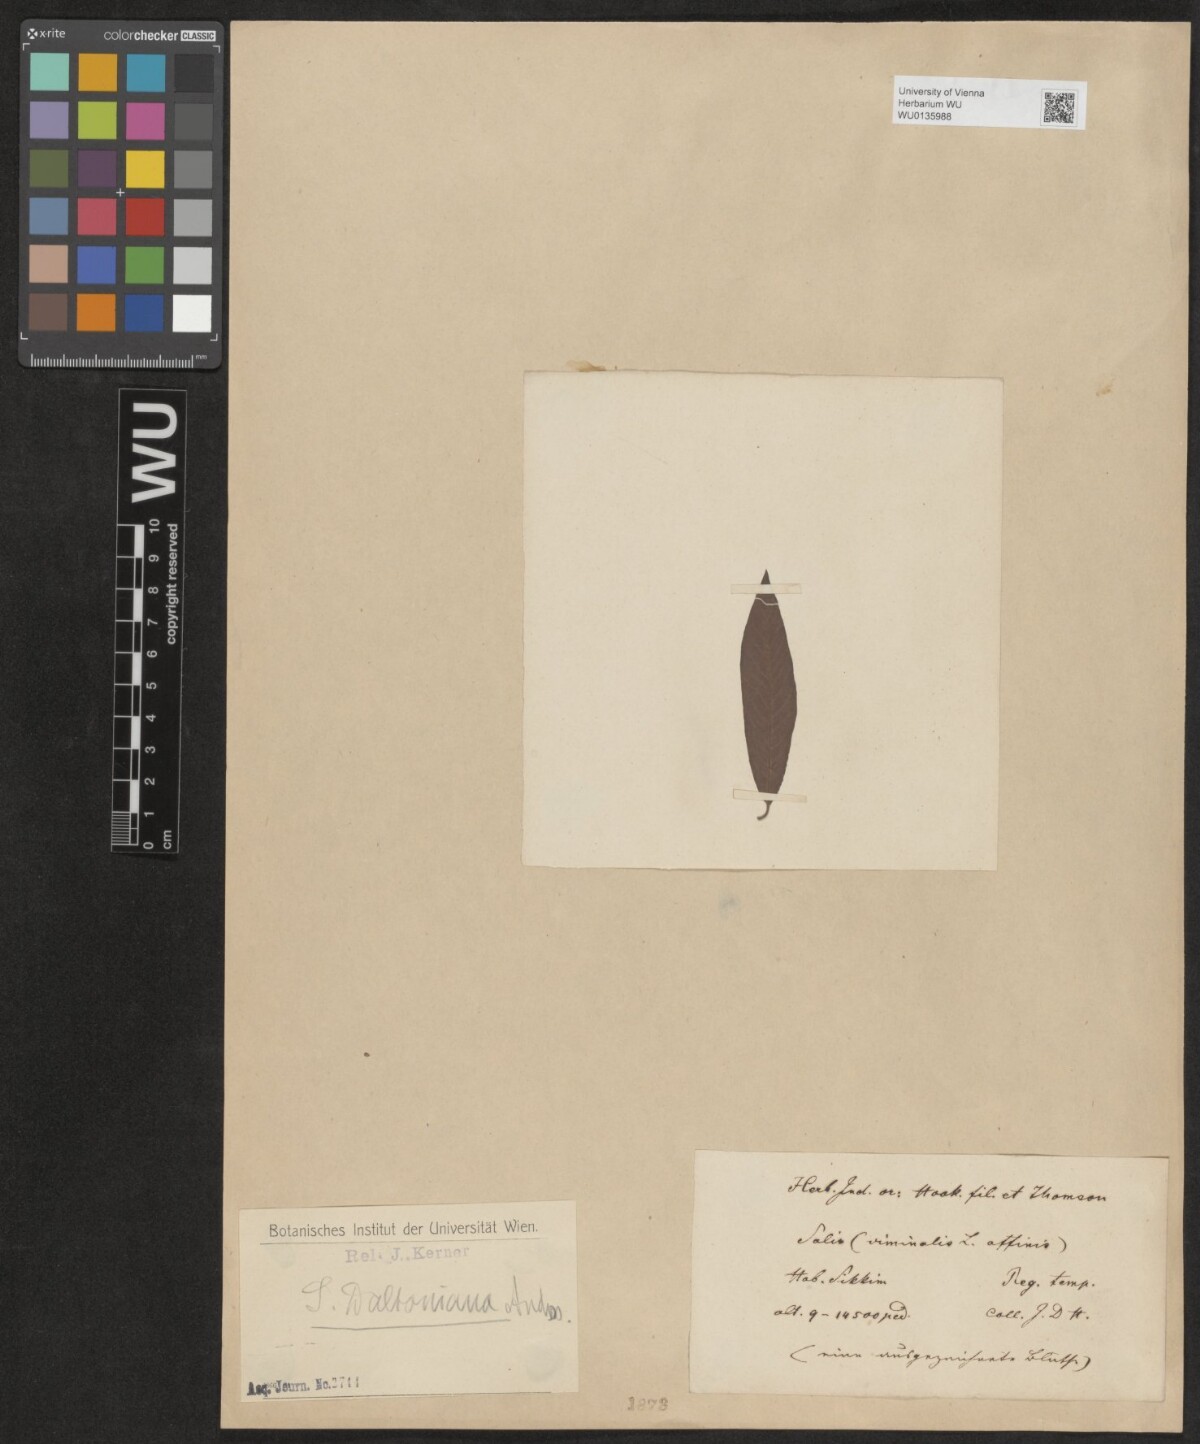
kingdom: Plantae
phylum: Tracheophyta
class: Magnoliopsida
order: Malpighiales
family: Salicaceae
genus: Salix
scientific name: Salix daltoniana
